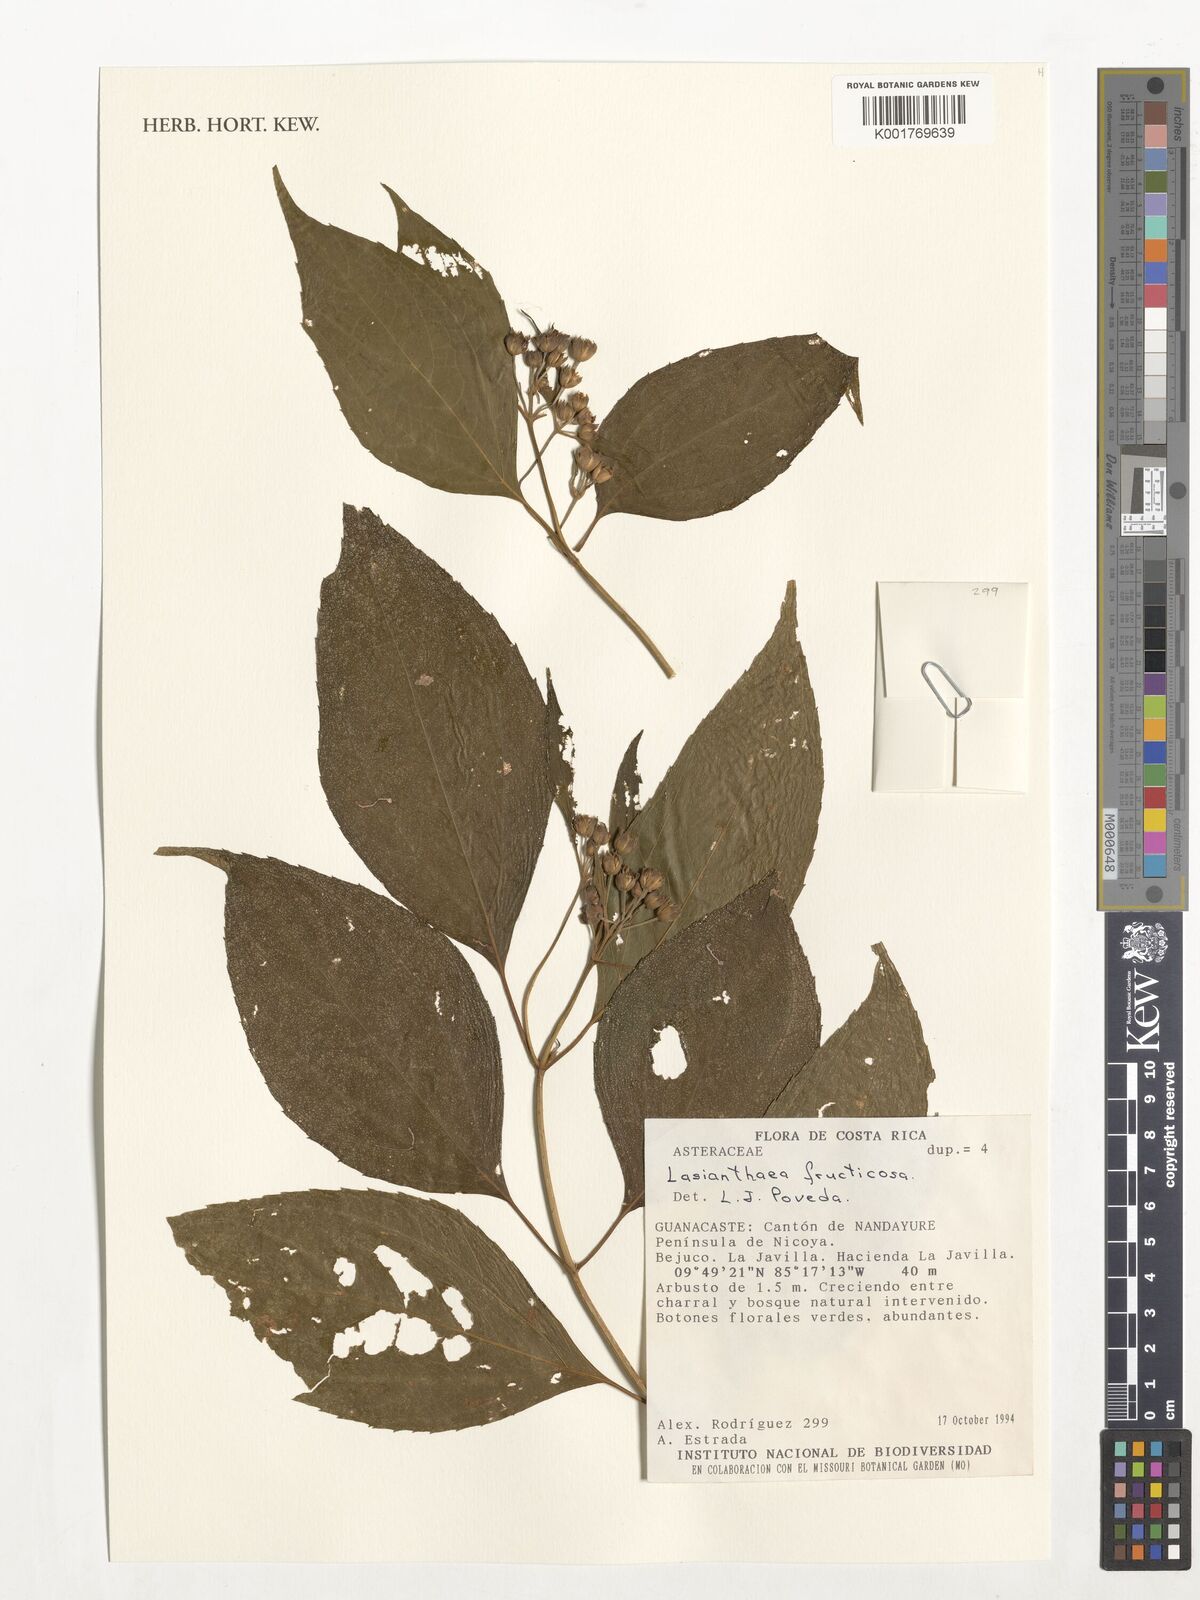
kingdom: Plantae
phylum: Tracheophyta
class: Magnoliopsida
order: Asterales
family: Asteraceae
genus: Lasianthaea
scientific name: Lasianthaea fruticosa
